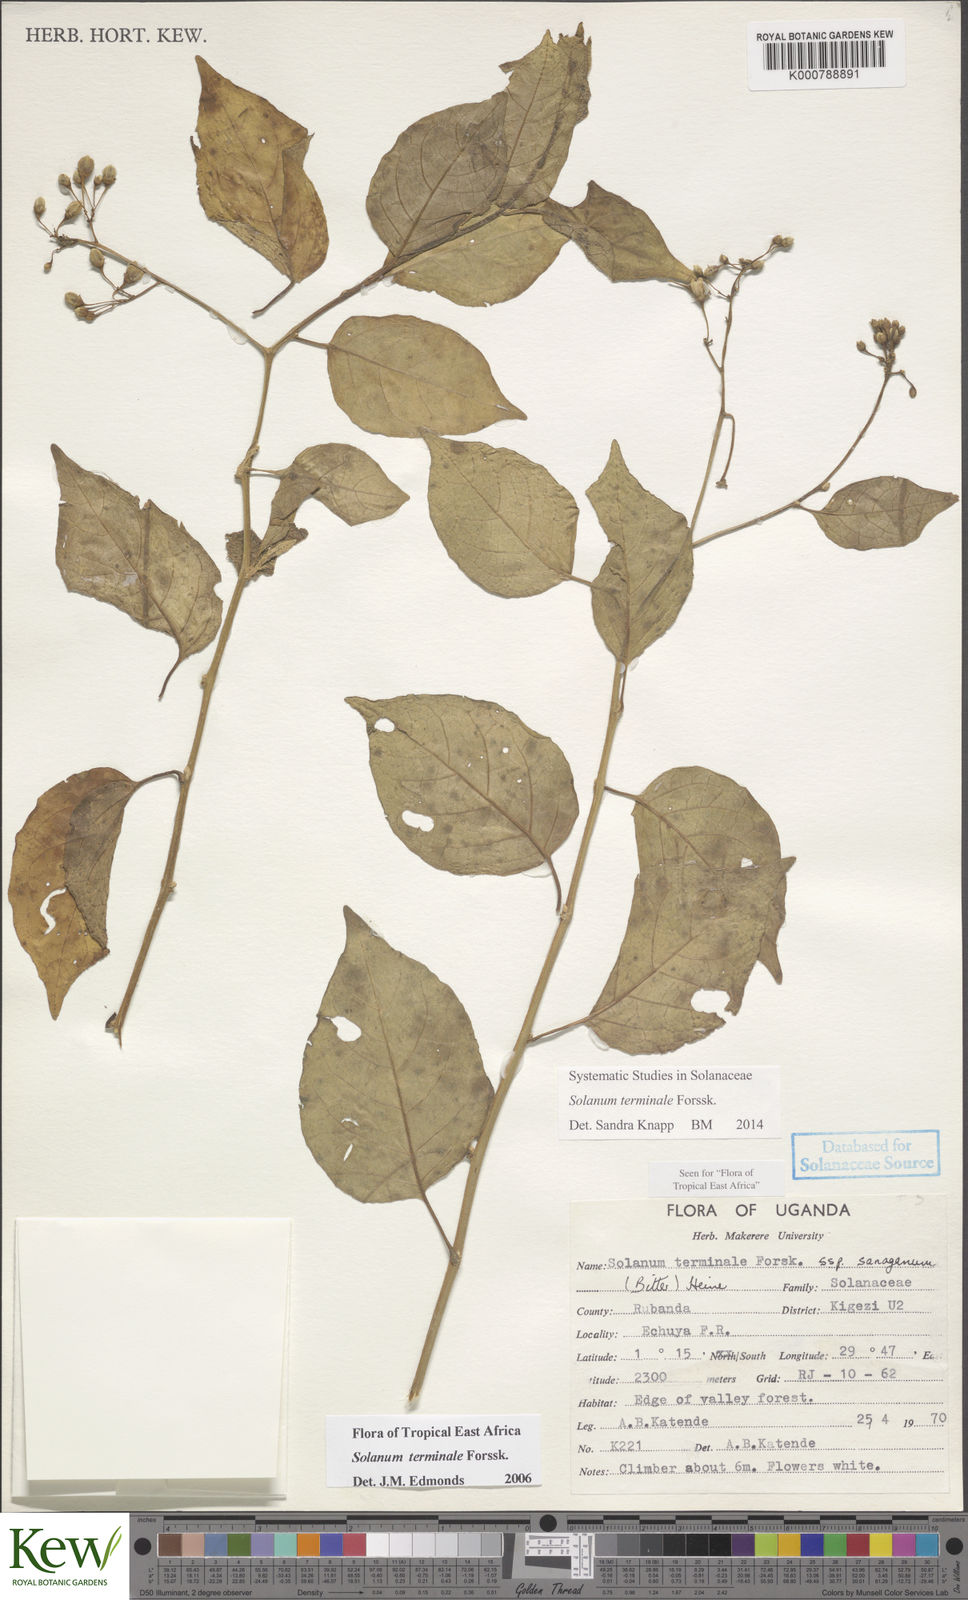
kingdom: Plantae
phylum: Tracheophyta
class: Magnoliopsida
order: Solanales
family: Solanaceae
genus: Solanum
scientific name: Solanum terminale
